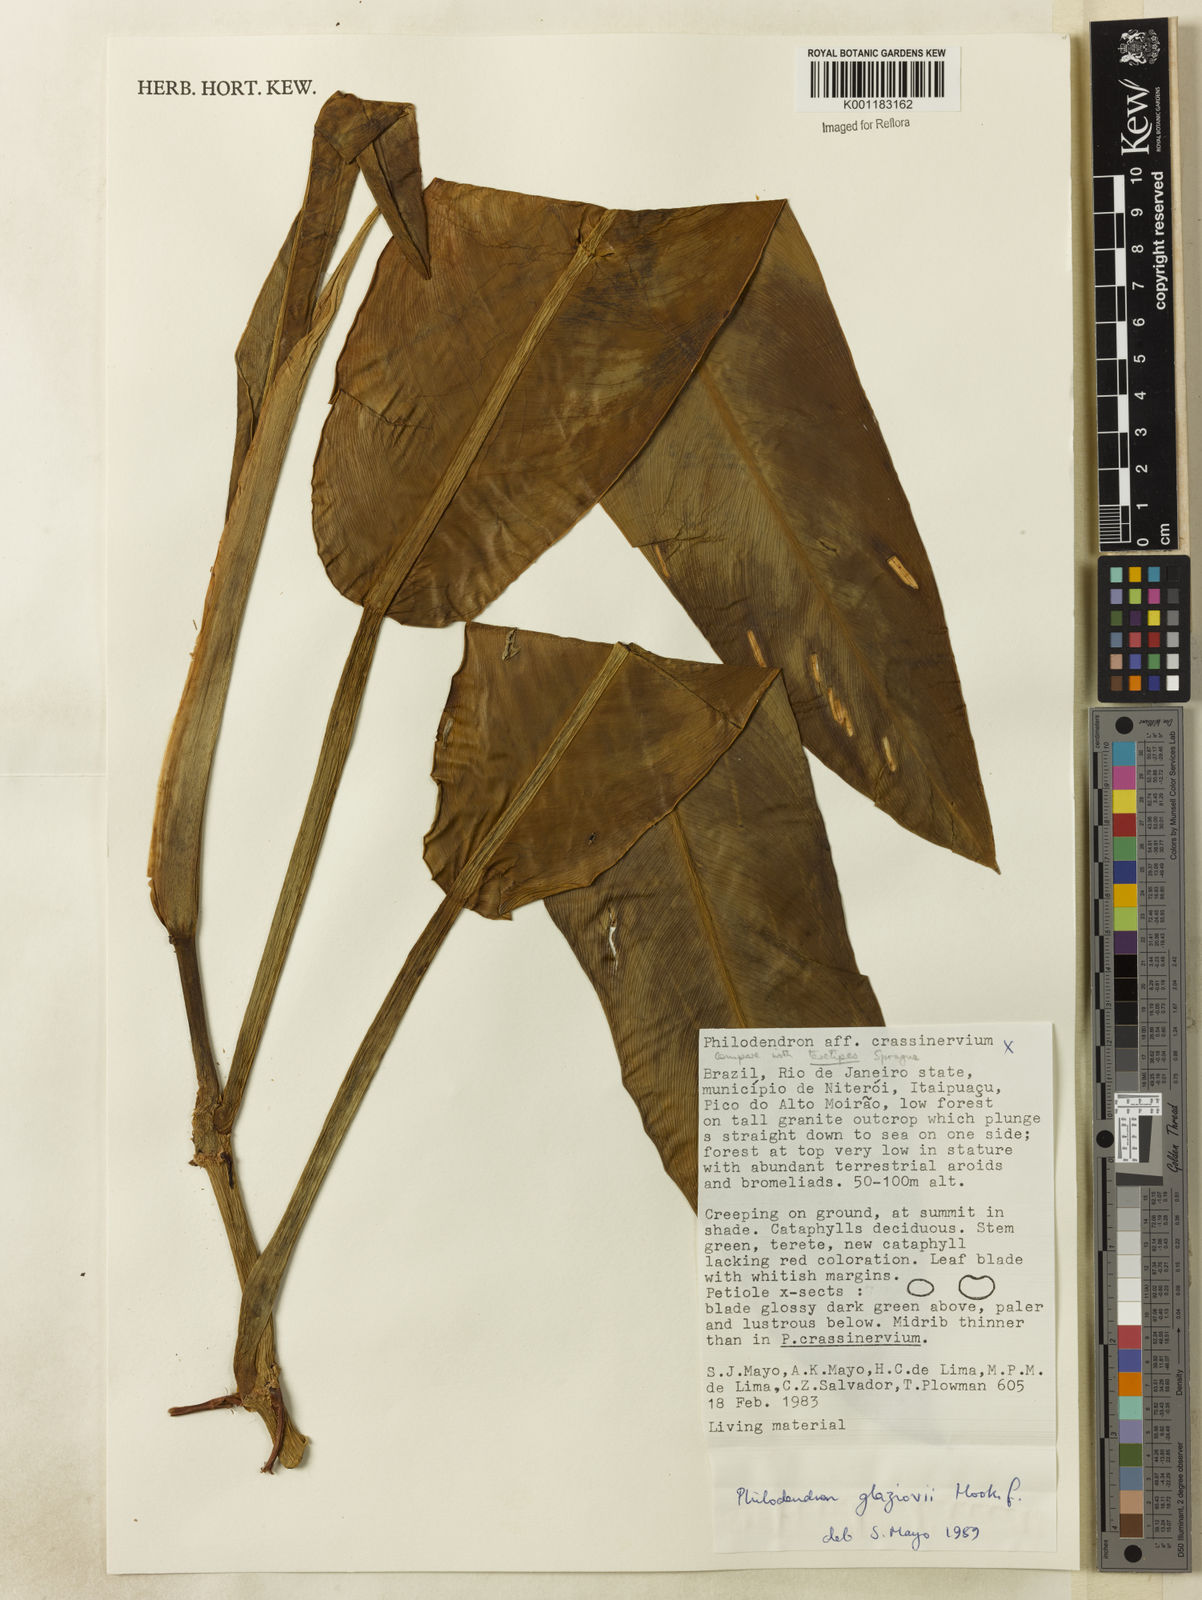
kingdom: Plantae
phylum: Tracheophyta
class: Liliopsida
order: Alismatales
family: Araceae
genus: Philodendron
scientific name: Philodendron crassinervium
